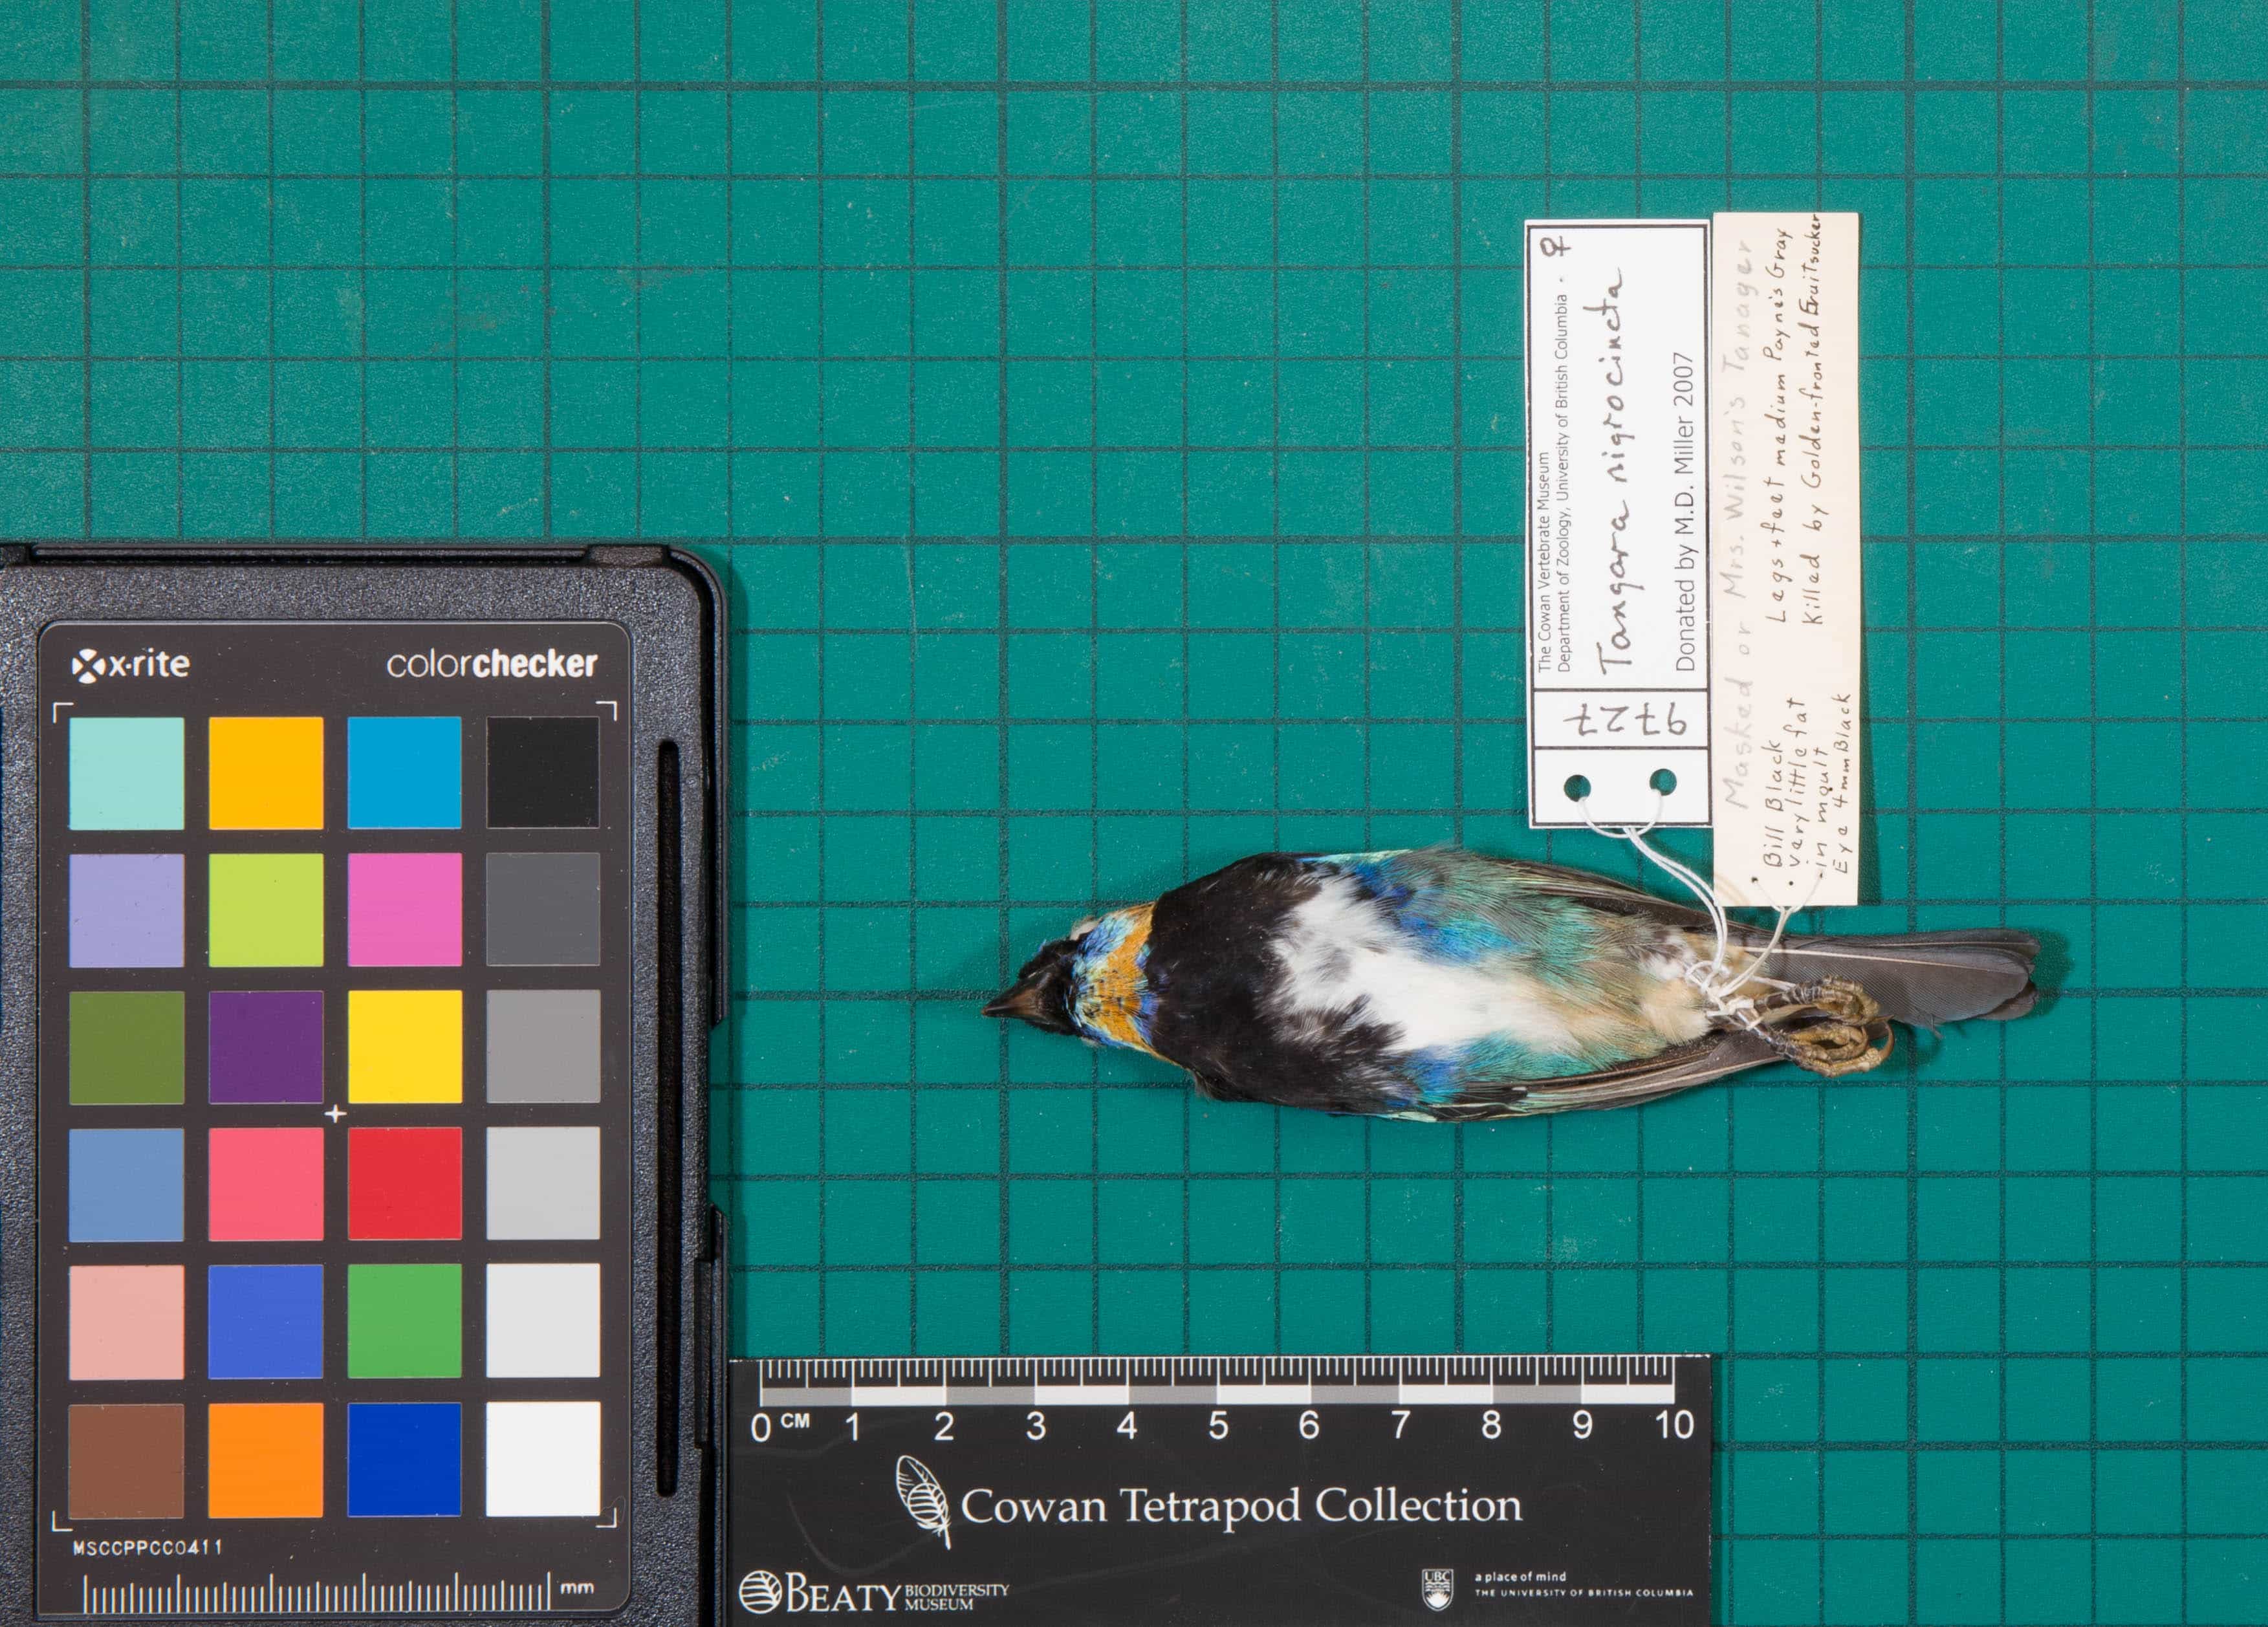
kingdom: Animalia
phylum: Chordata
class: Aves
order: Passeriformes
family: Thraupidae
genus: Stilpnia
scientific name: Stilpnia nigrocincta
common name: Masked Tanager
